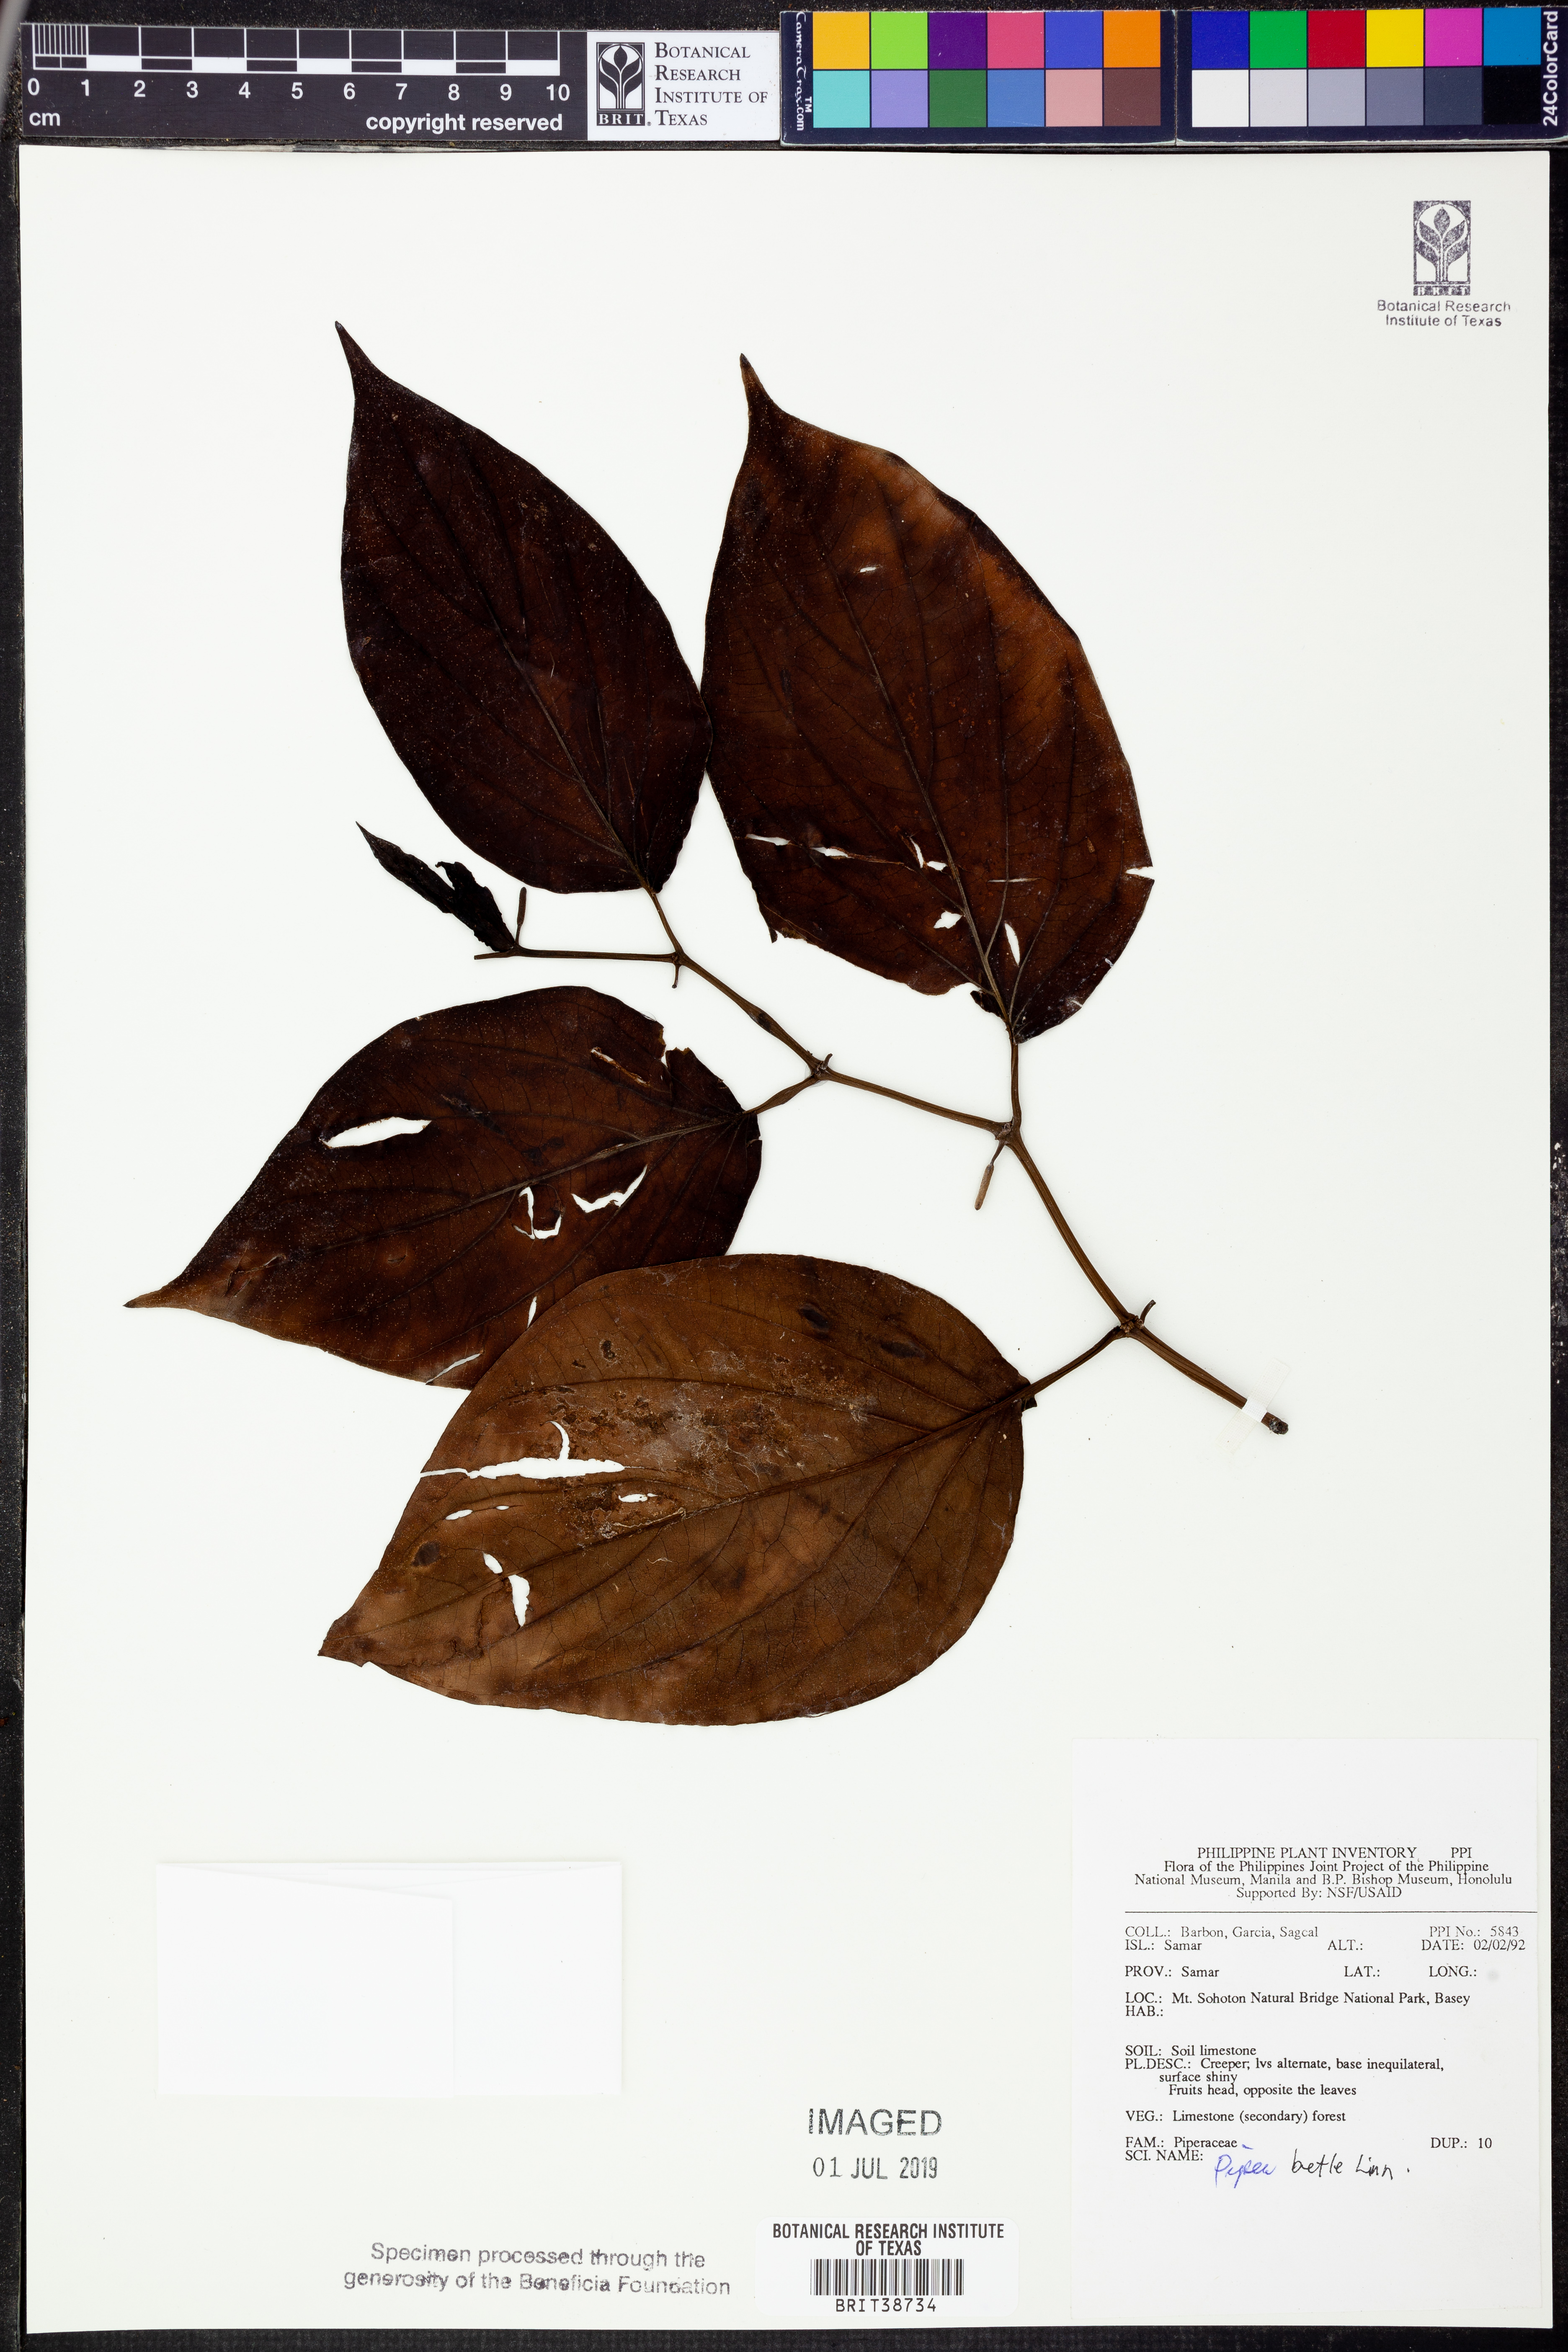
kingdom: Plantae
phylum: Tracheophyta
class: Magnoliopsida
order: Piperales
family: Piperaceae
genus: Piper
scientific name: Piper celtidiforme
